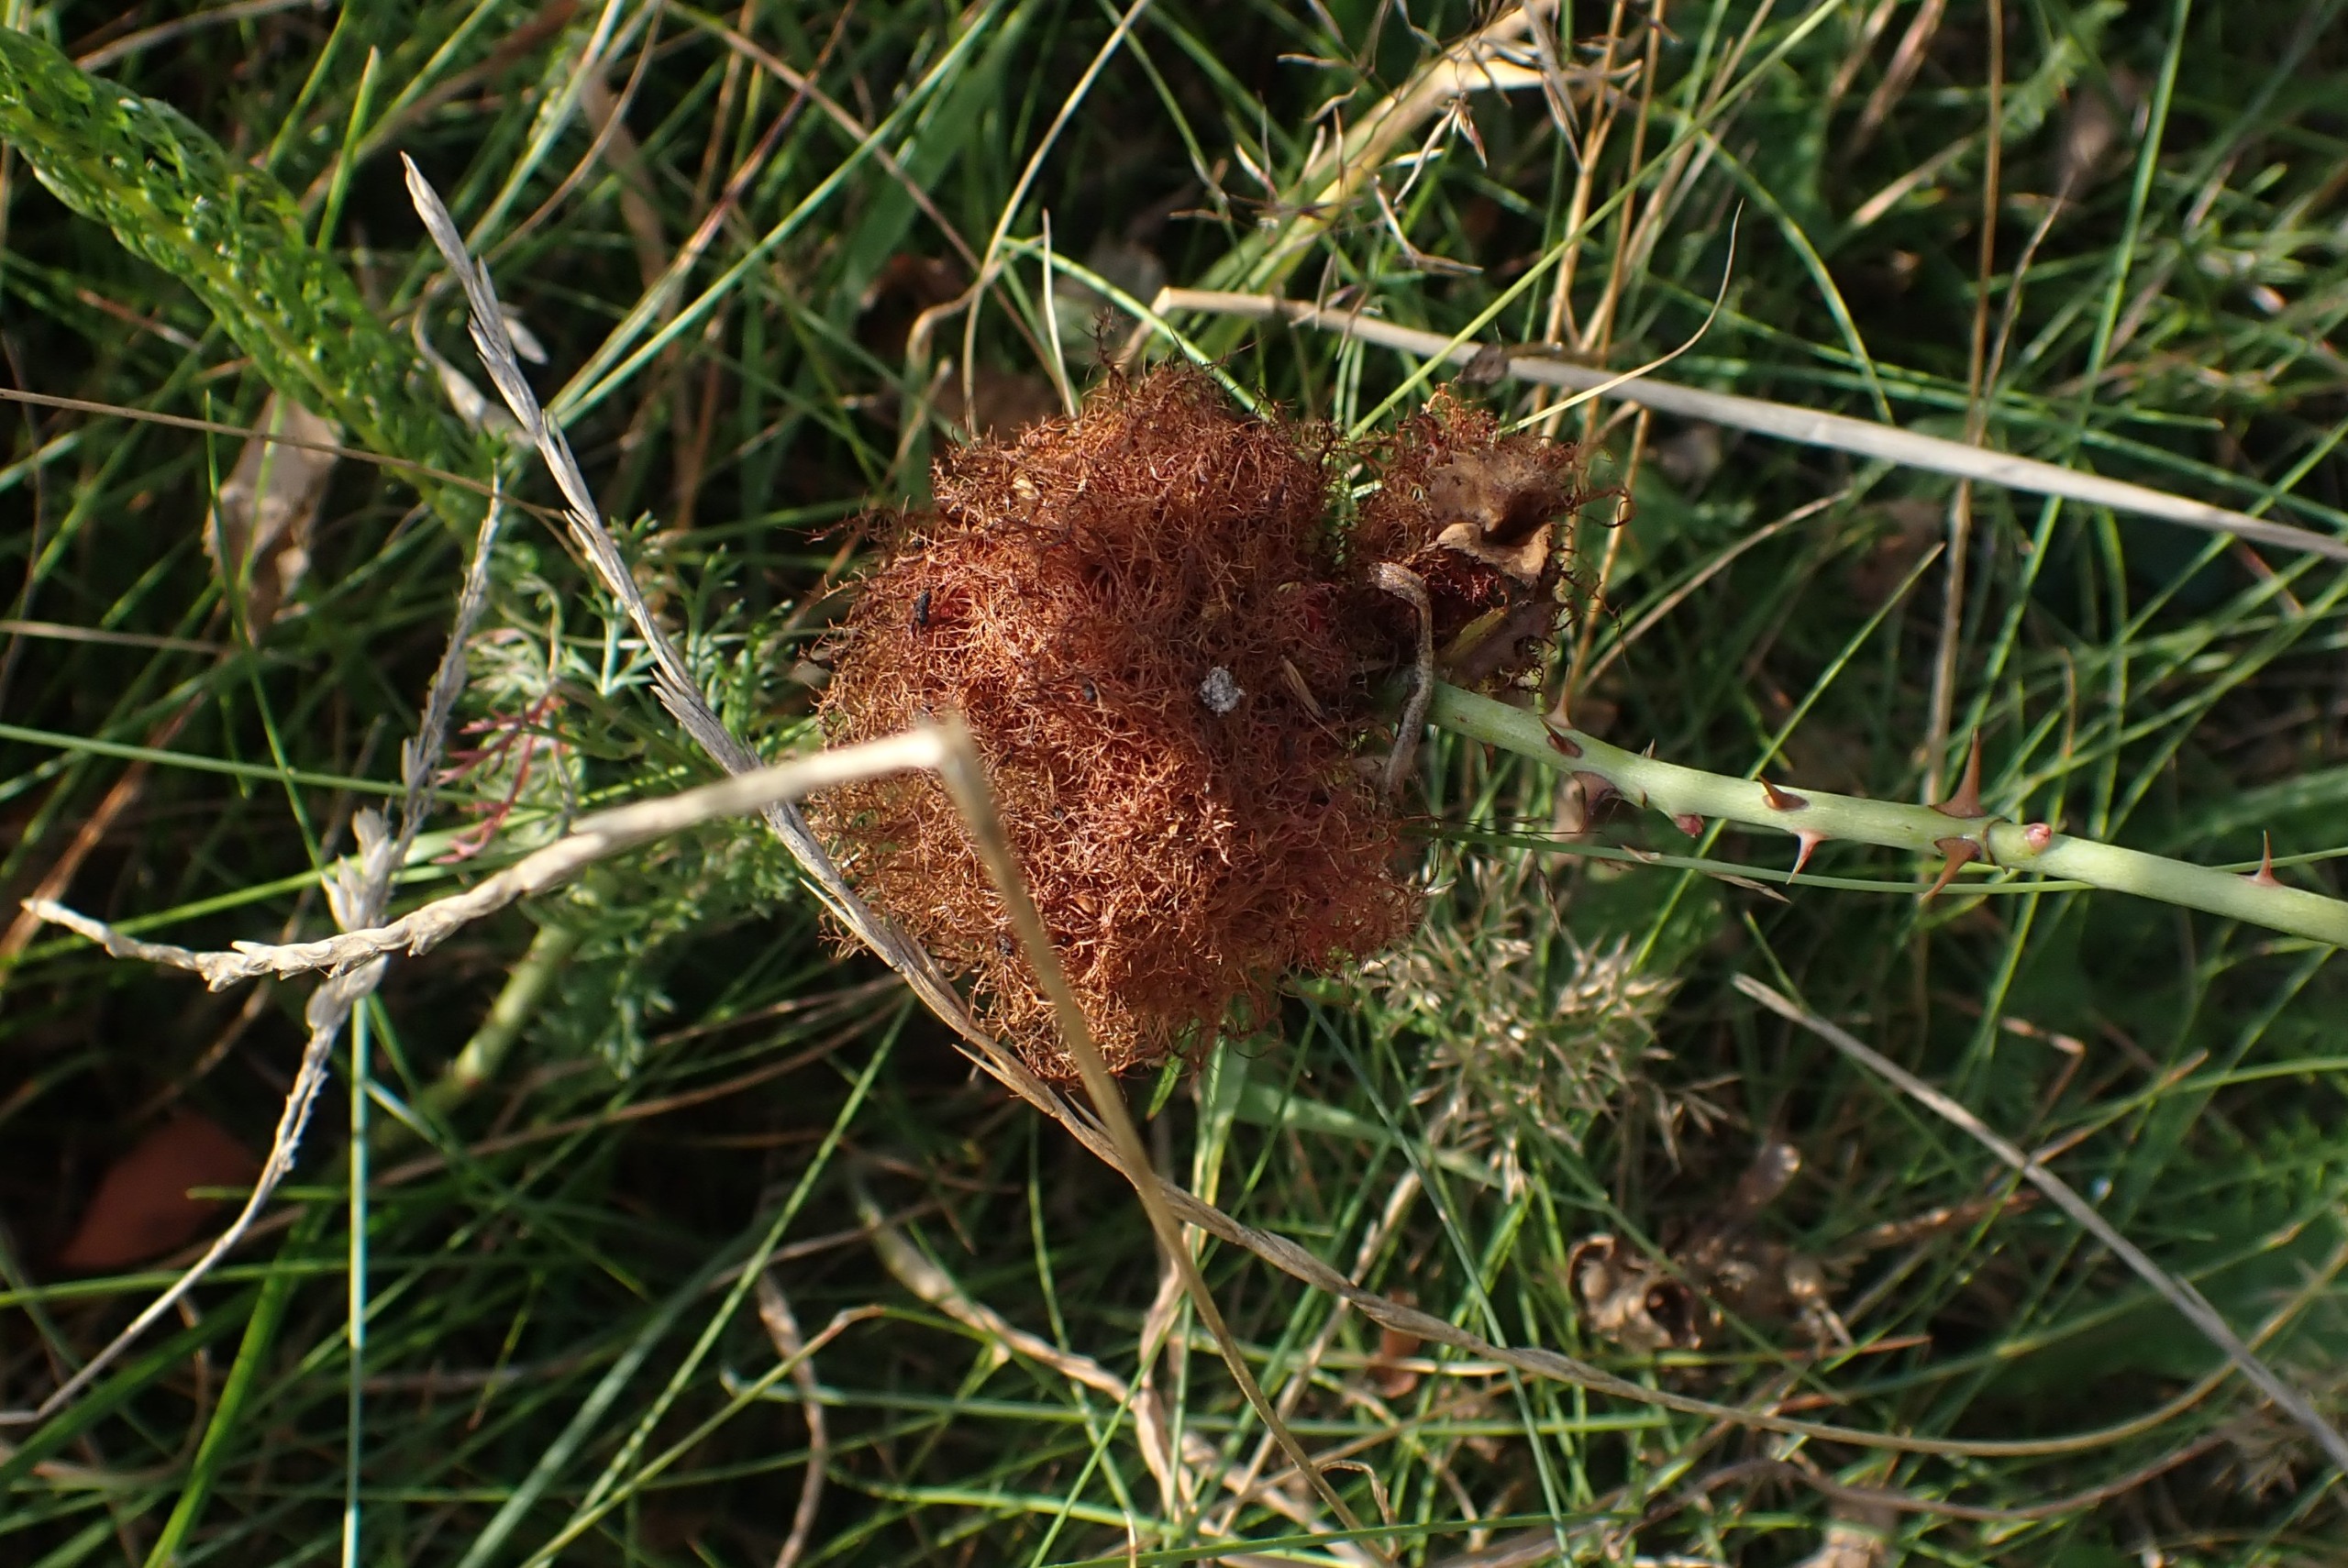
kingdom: Animalia
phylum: Arthropoda
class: Insecta
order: Hymenoptera
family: Cynipidae
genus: Diplolepis
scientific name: Diplolepis rosae
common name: Bedeguargalhveps
